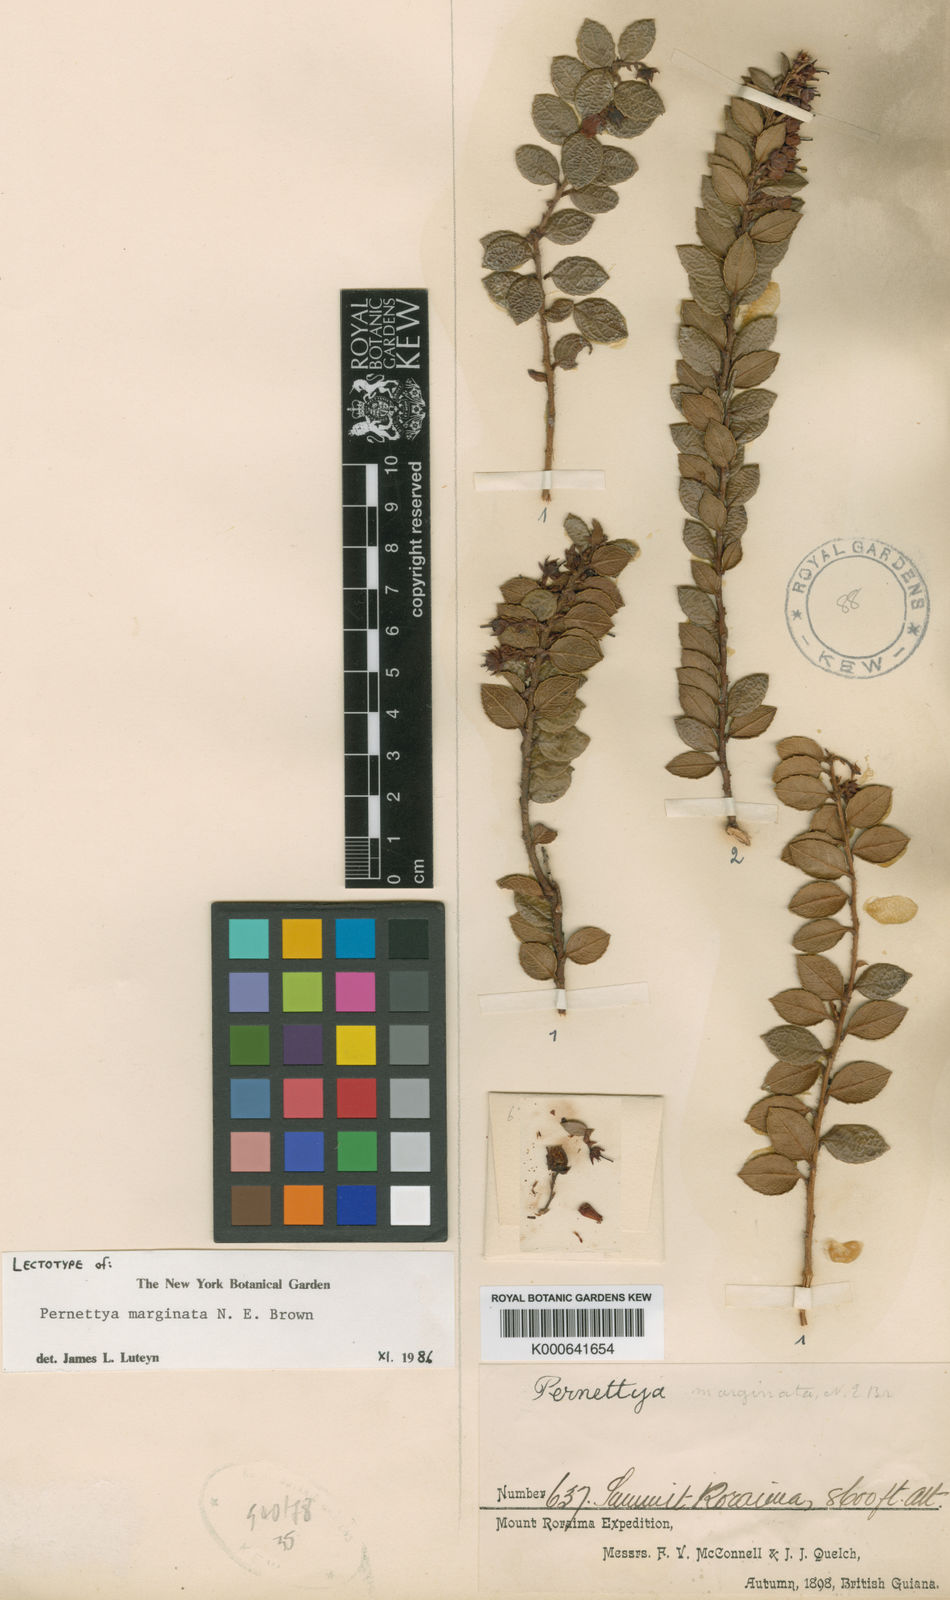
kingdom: Plantae
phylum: Tracheophyta
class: Magnoliopsida
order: Ericales
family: Ericaceae
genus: Gaultheria
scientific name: Gaultheria marginata
